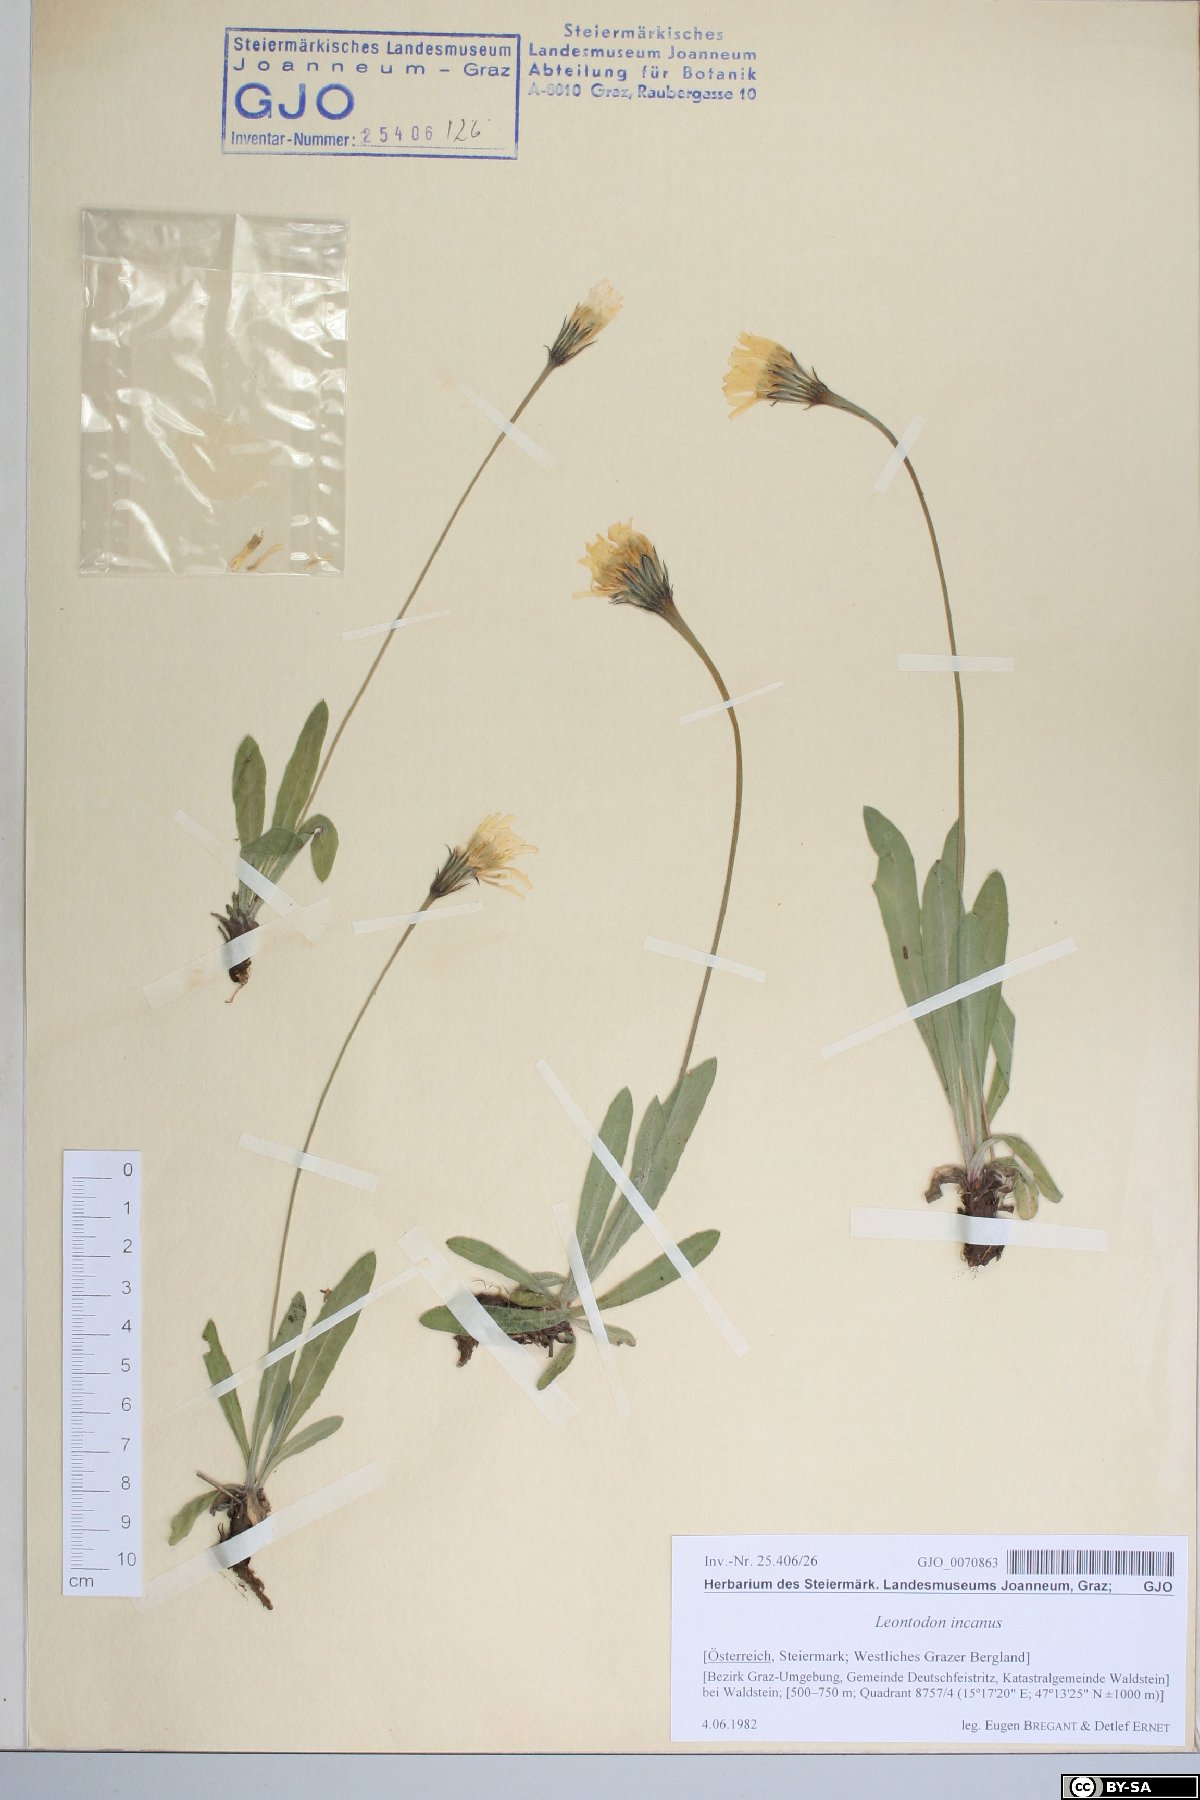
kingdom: Plantae
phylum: Tracheophyta
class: Magnoliopsida
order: Asterales
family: Asteraceae
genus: Leontodon
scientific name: Leontodon incanus
